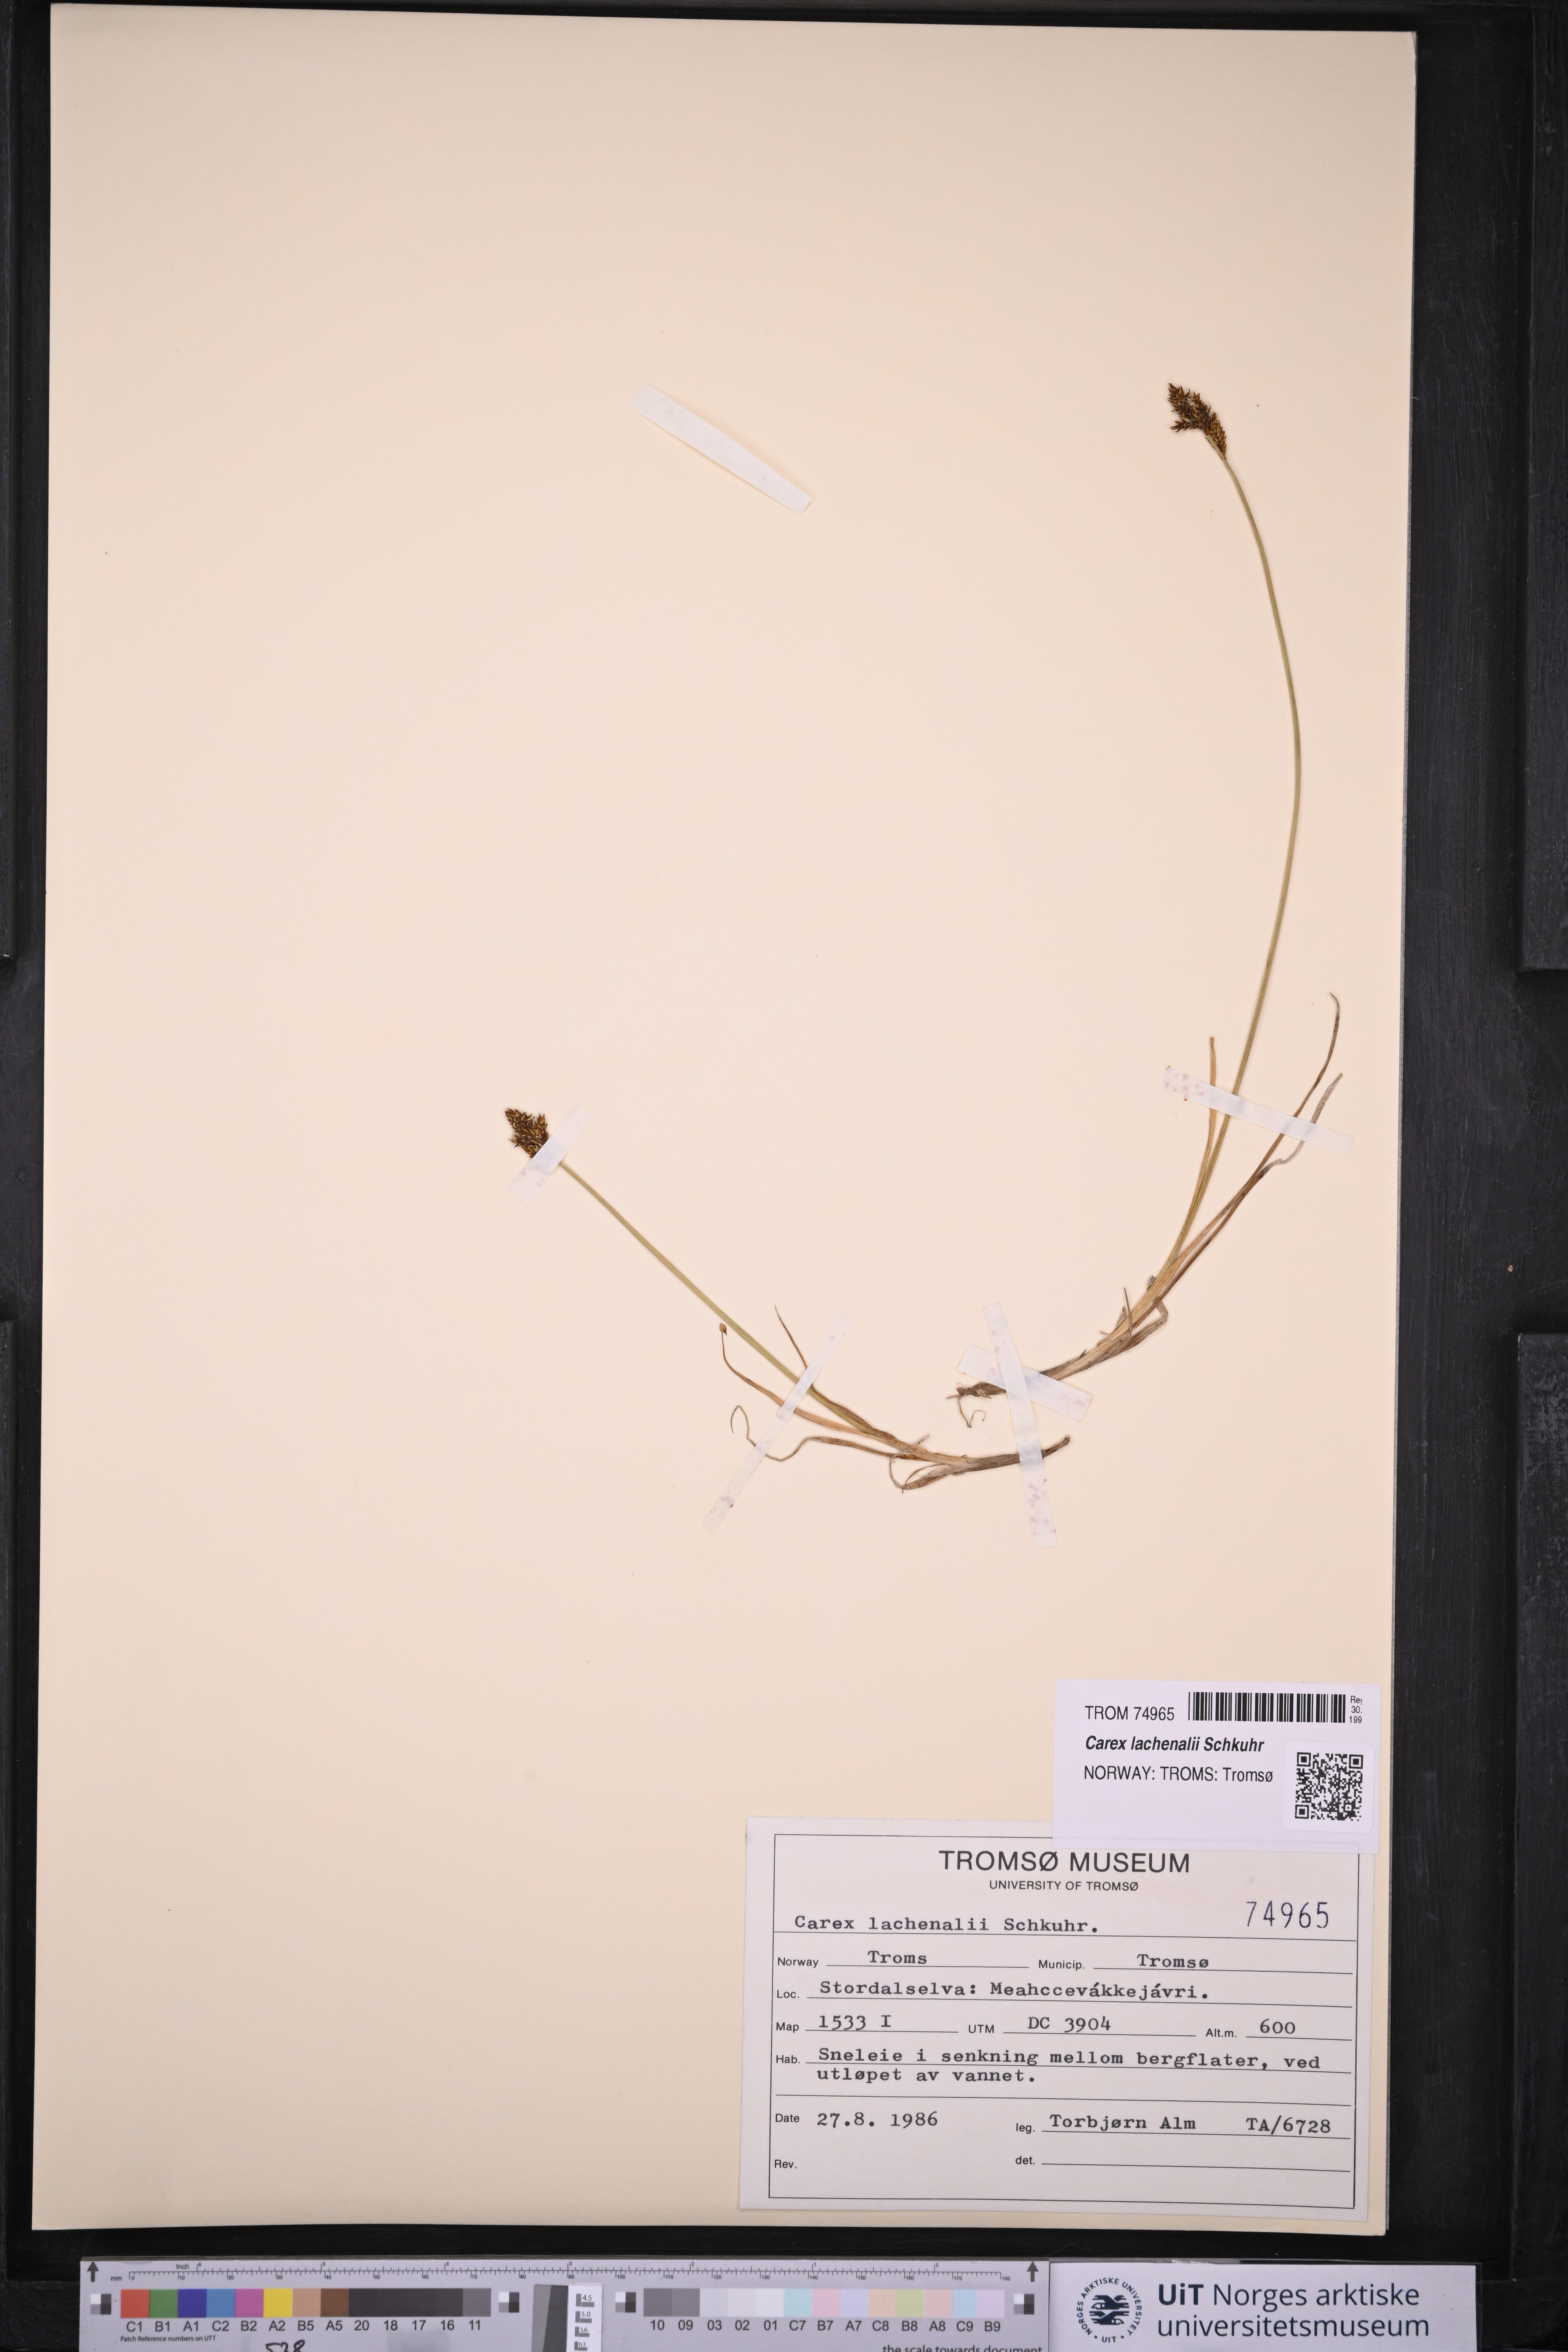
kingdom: Plantae
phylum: Tracheophyta
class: Liliopsida
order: Poales
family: Cyperaceae
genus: Carex
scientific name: Carex lachenalii
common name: Hare's-foot sedge
